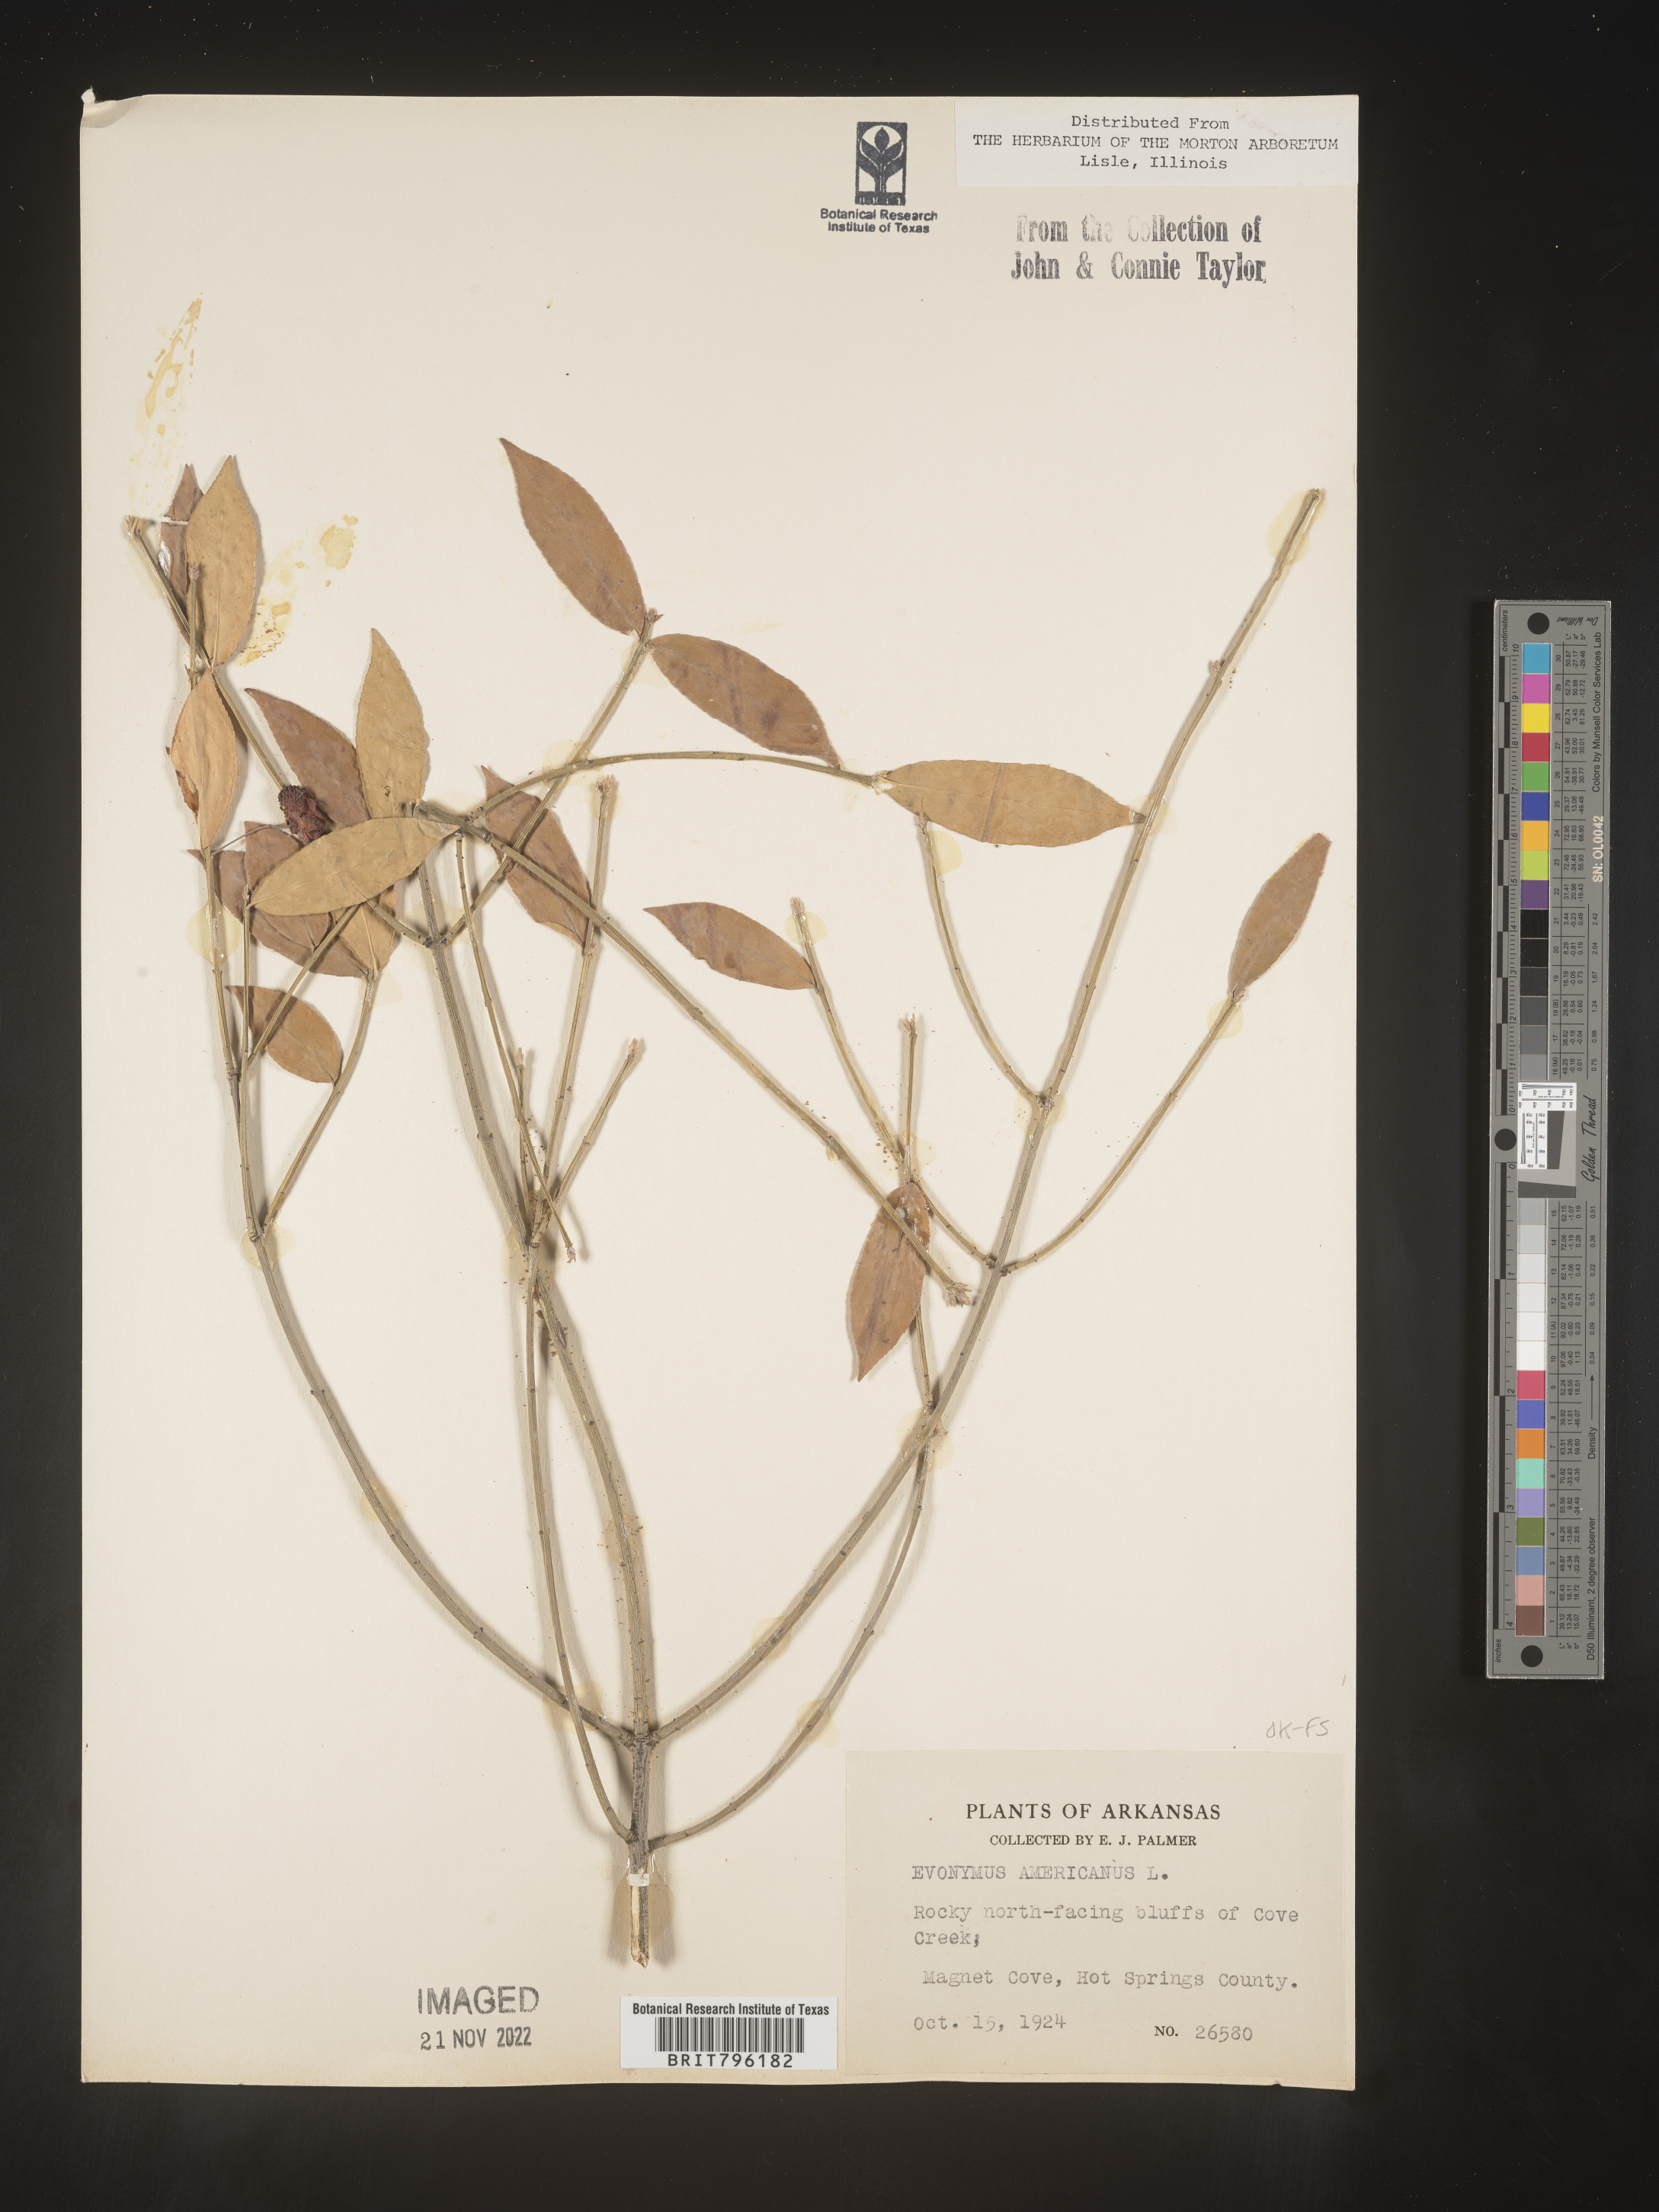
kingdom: Plantae
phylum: Tracheophyta
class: Magnoliopsida
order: Celastrales
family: Celastraceae
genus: Euonymus
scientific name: Euonymus americanus
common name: Bursting-heart
